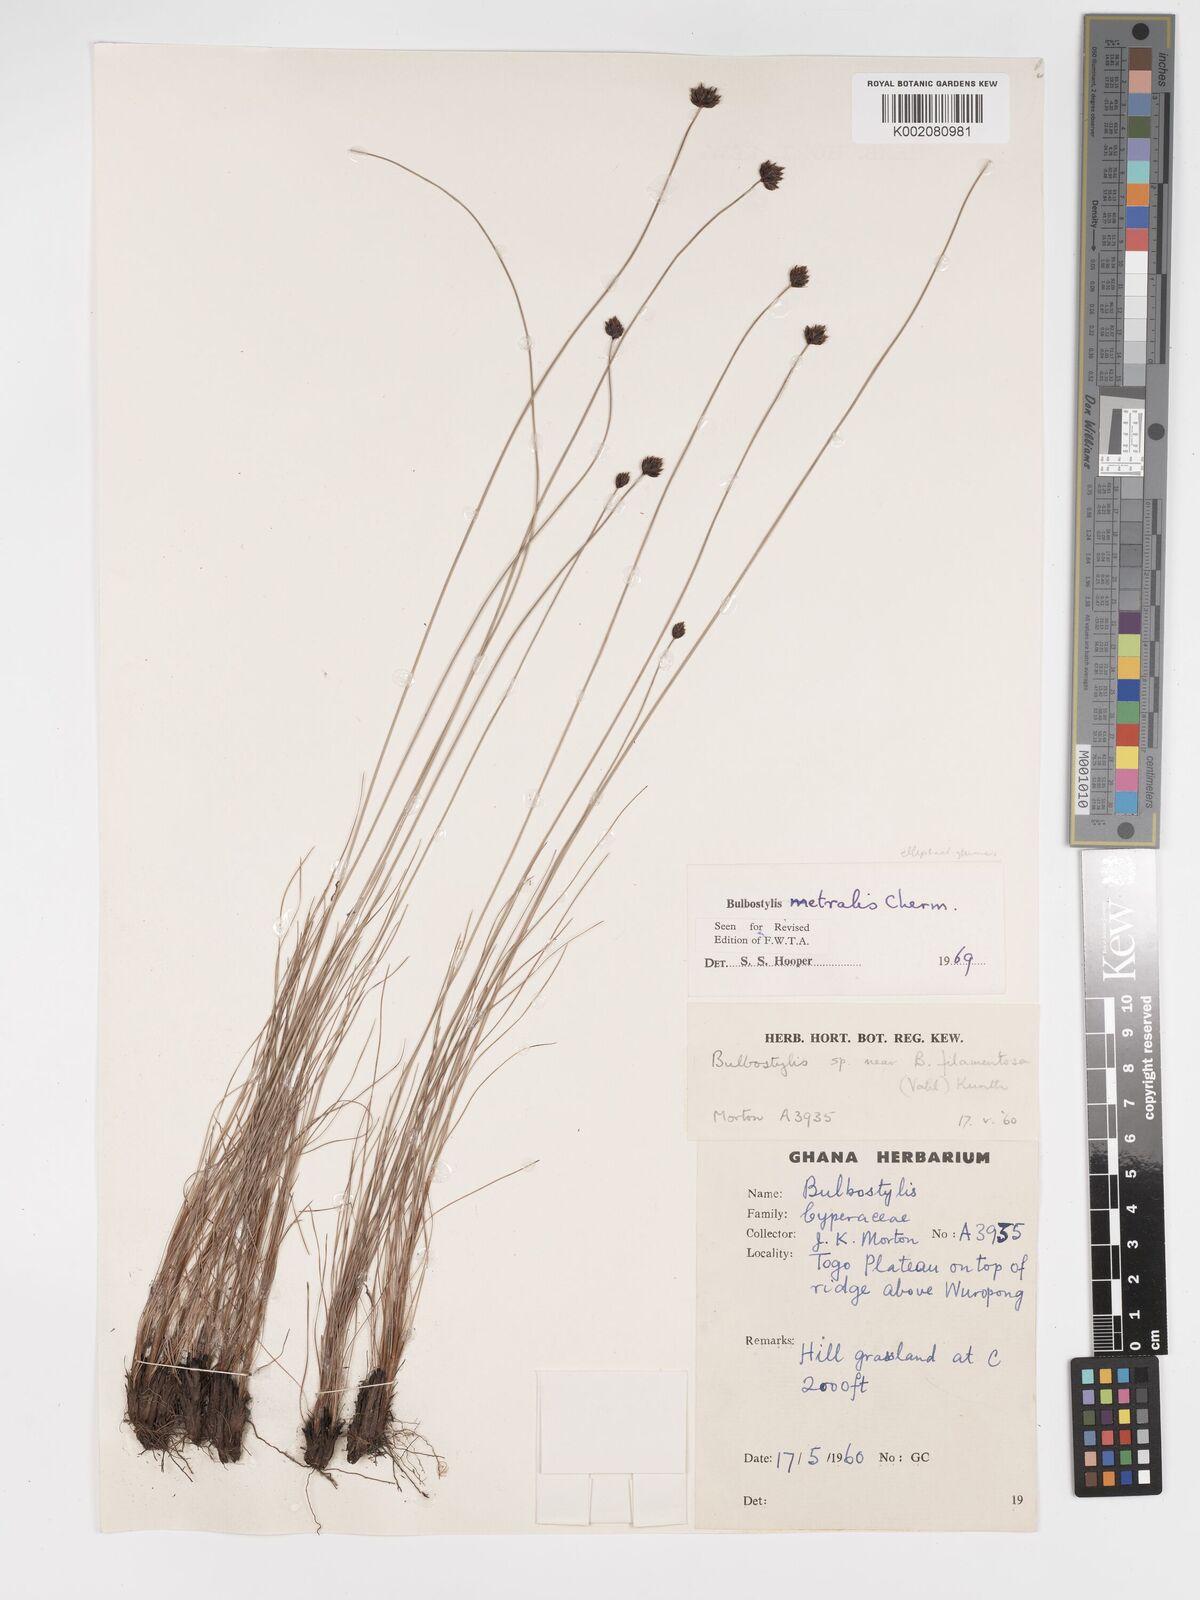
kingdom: Plantae
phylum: Tracheophyta
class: Liliopsida
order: Poales
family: Cyperaceae
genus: Bulbostylis
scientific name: Bulbostylis filamentosa
